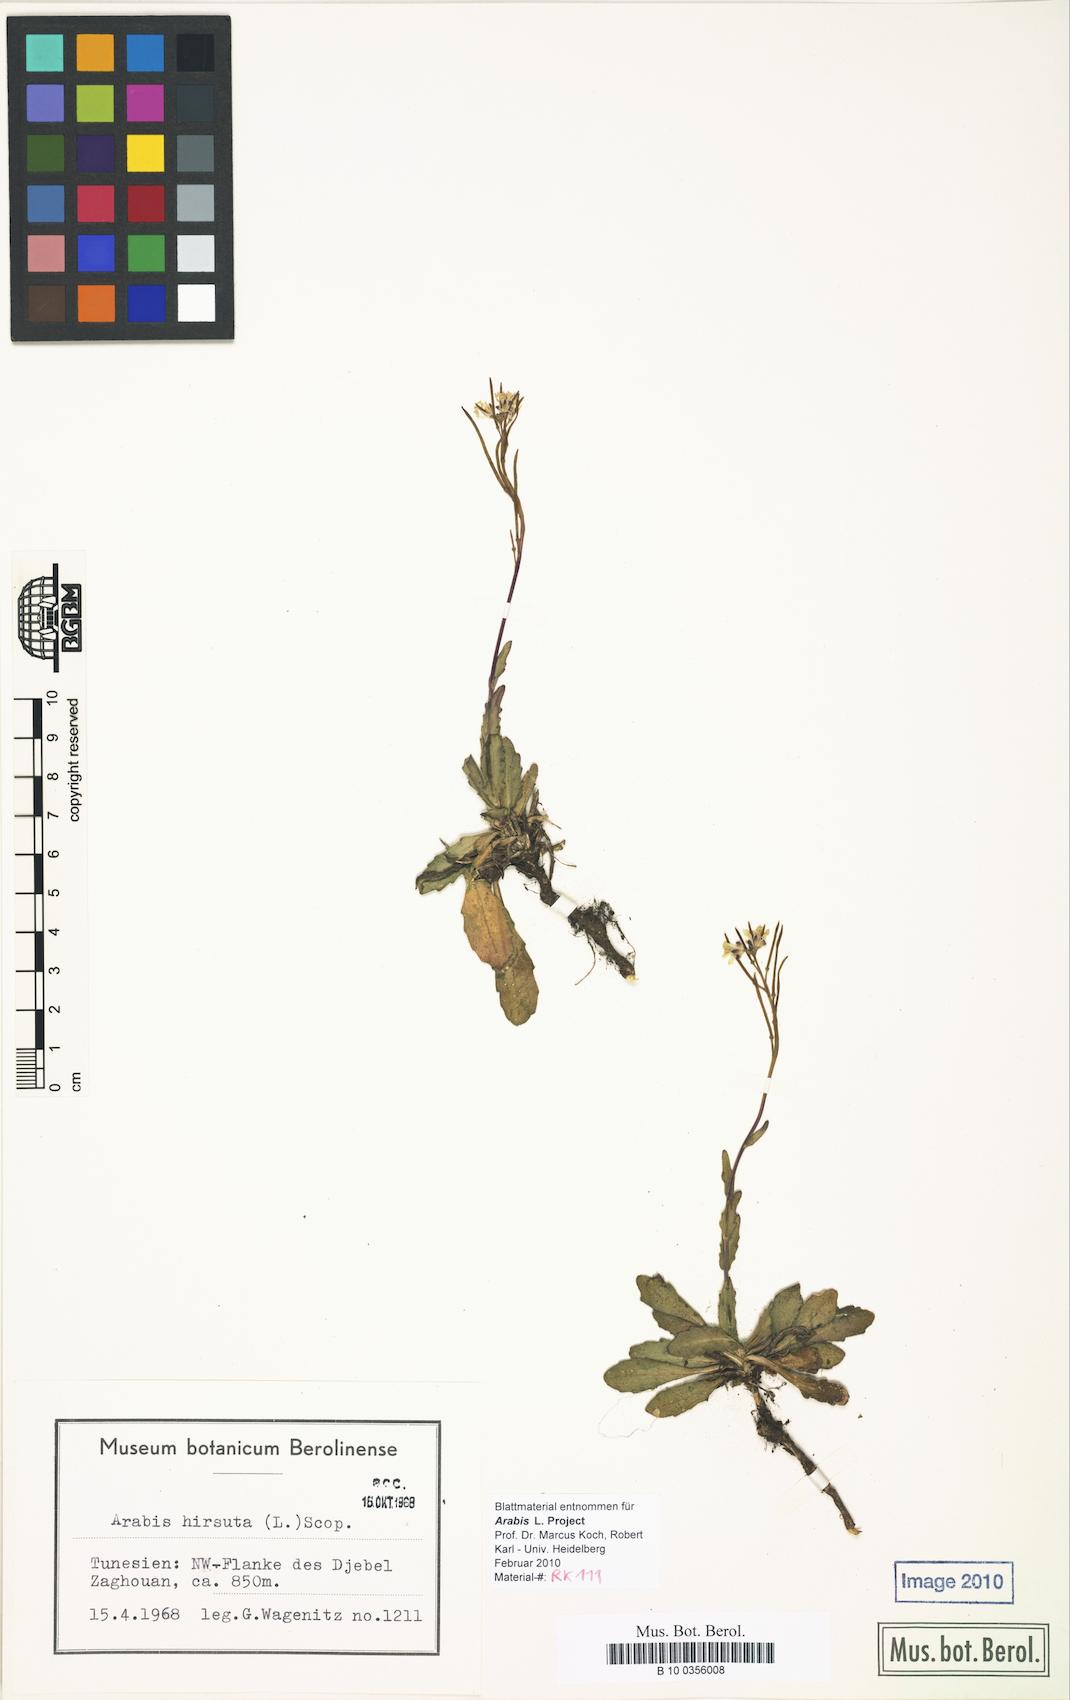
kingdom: Plantae
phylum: Tracheophyta
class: Magnoliopsida
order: Brassicales
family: Brassicaceae
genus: Arabis
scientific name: Arabis hirsuta
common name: Hairy rock-cress
